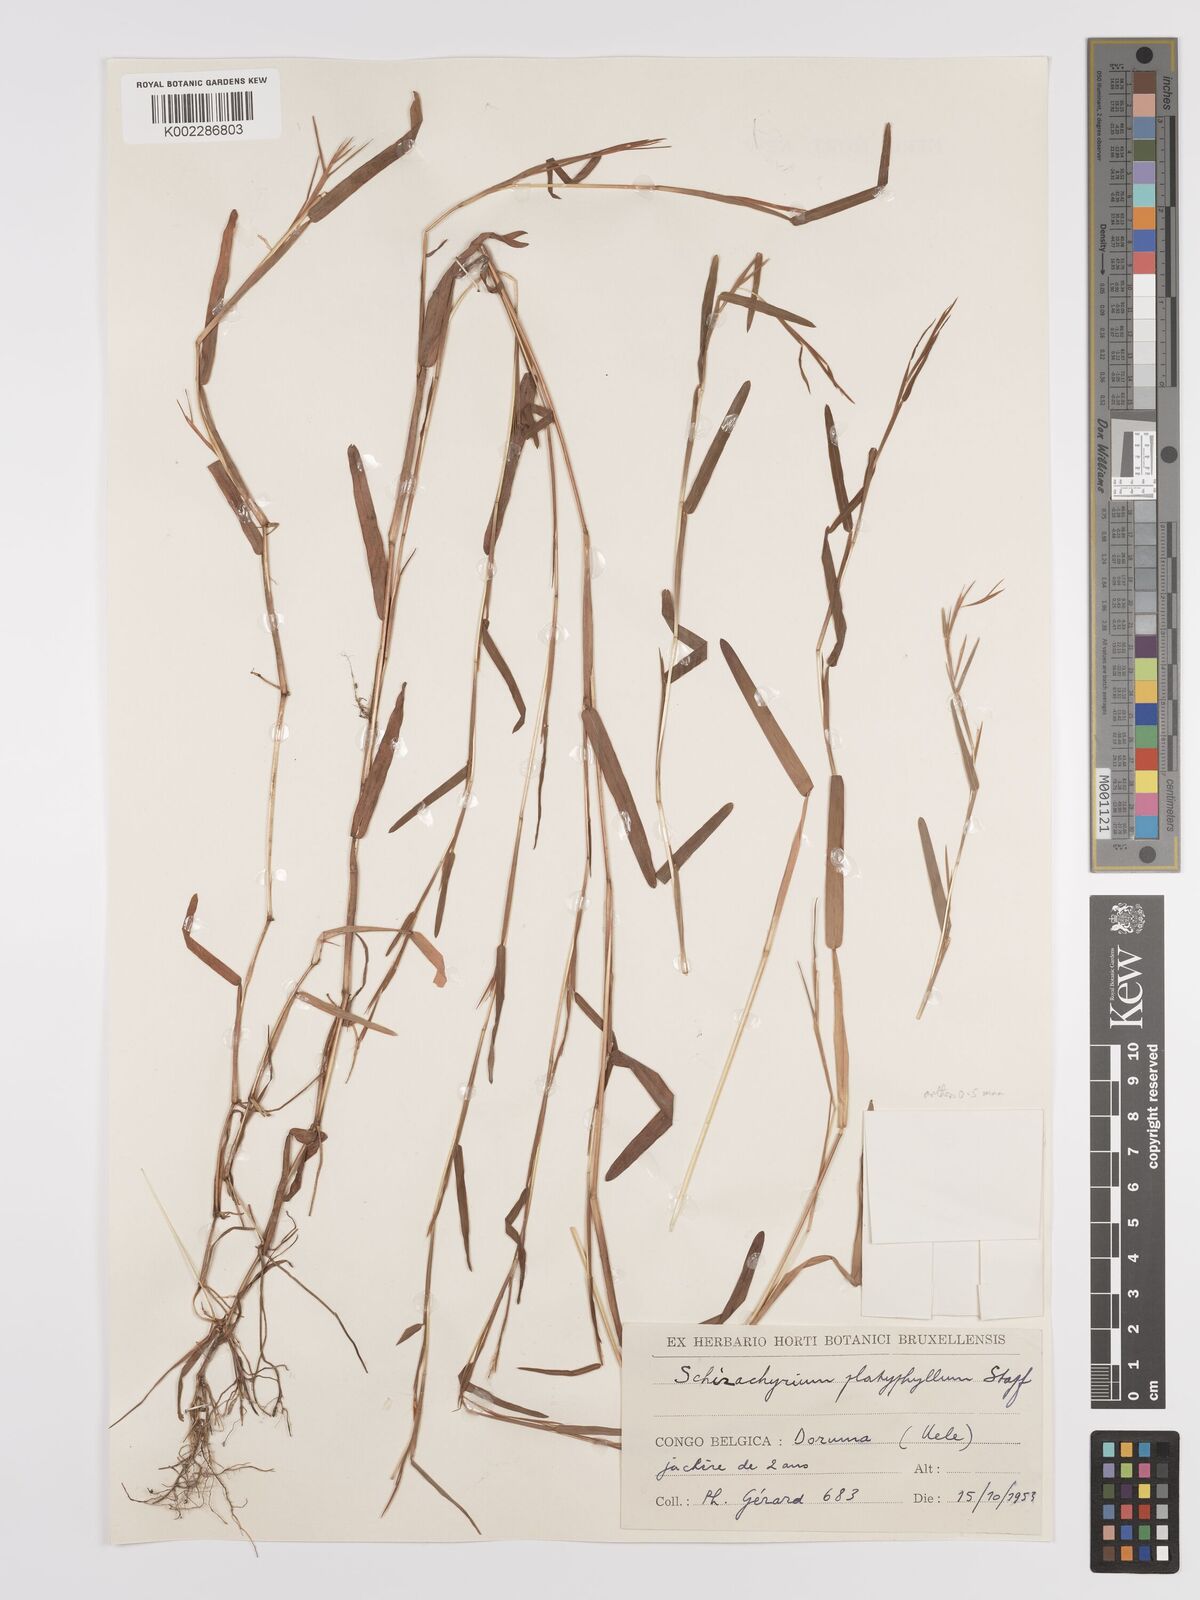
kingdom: Plantae
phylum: Tracheophyta
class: Liliopsida
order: Poales
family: Poaceae
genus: Schizachyrium
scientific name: Schizachyrium brevifolium
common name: Serillo dulce
